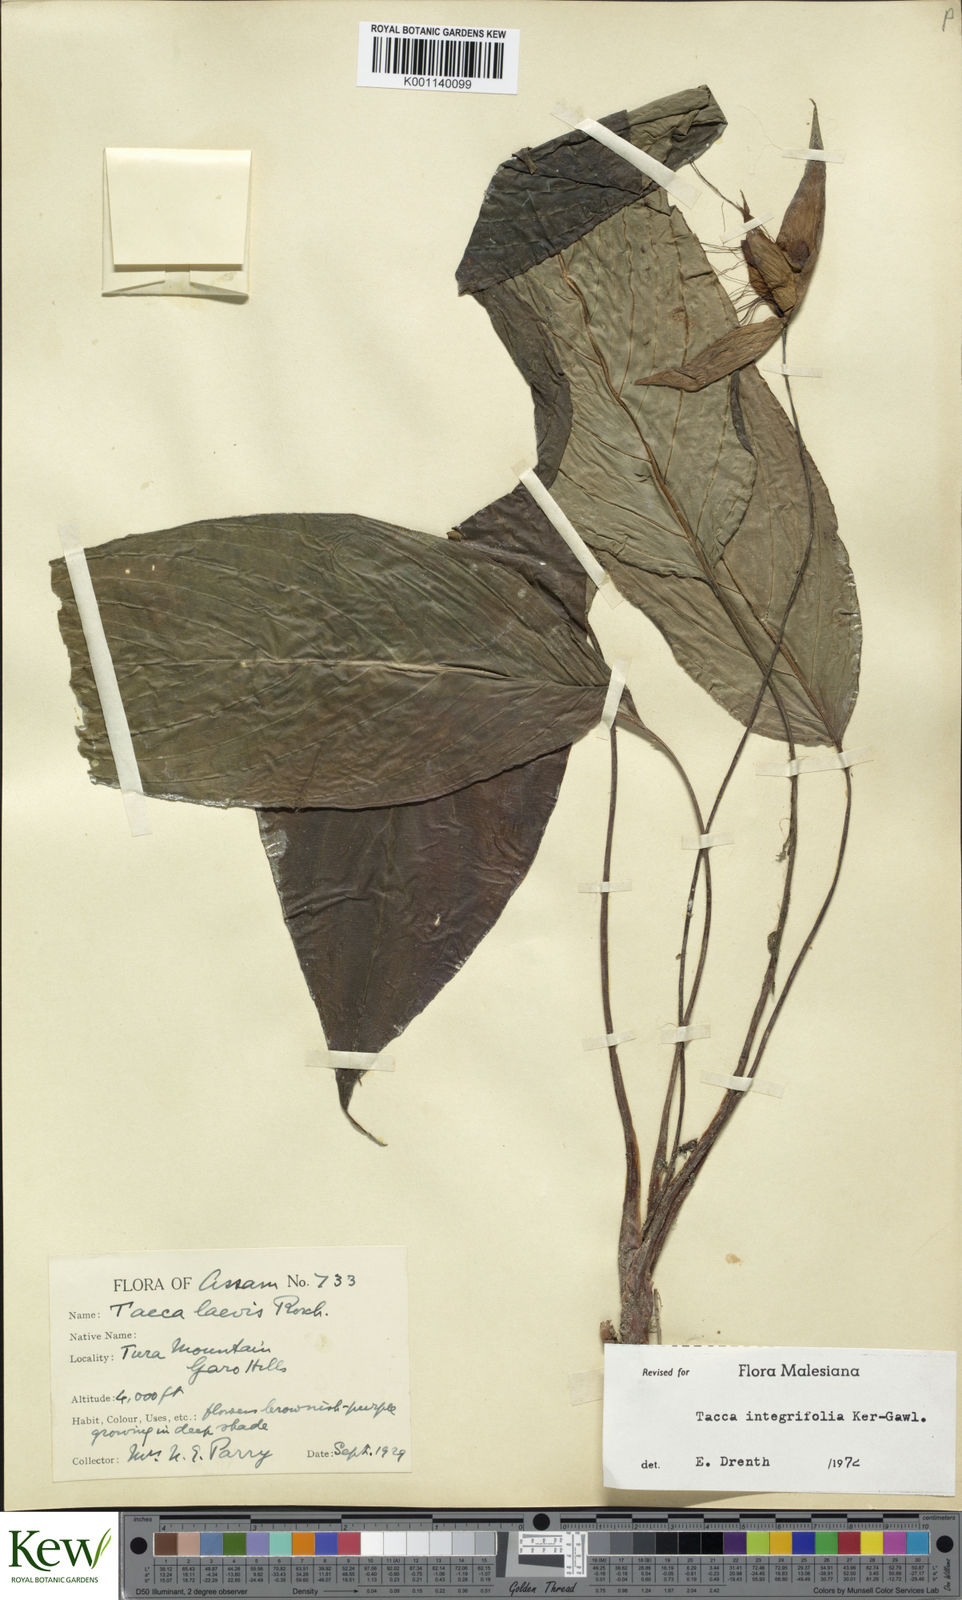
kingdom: Plantae
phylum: Tracheophyta
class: Liliopsida
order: Dioscoreales
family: Dioscoreaceae
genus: Tacca
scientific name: Tacca
